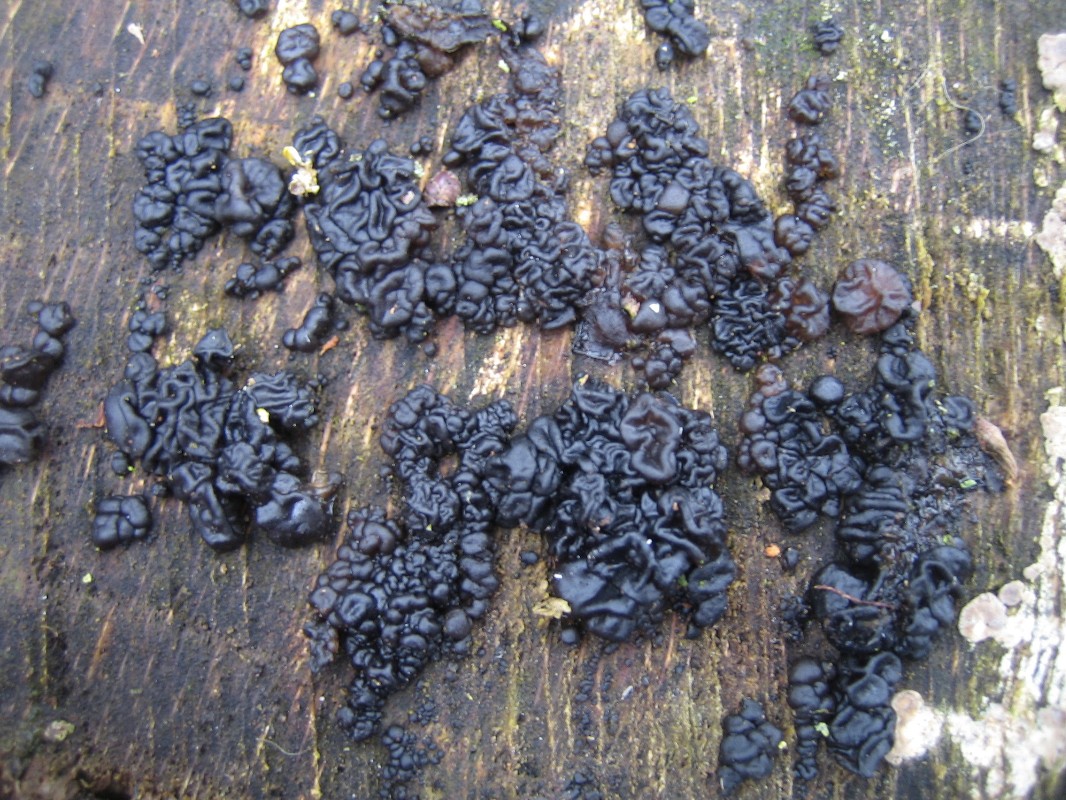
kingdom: Fungi
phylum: Basidiomycota
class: Agaricomycetes
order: Auriculariales
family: Auriculariaceae
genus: Exidia
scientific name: Exidia nigricans
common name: almindelig bævretop
